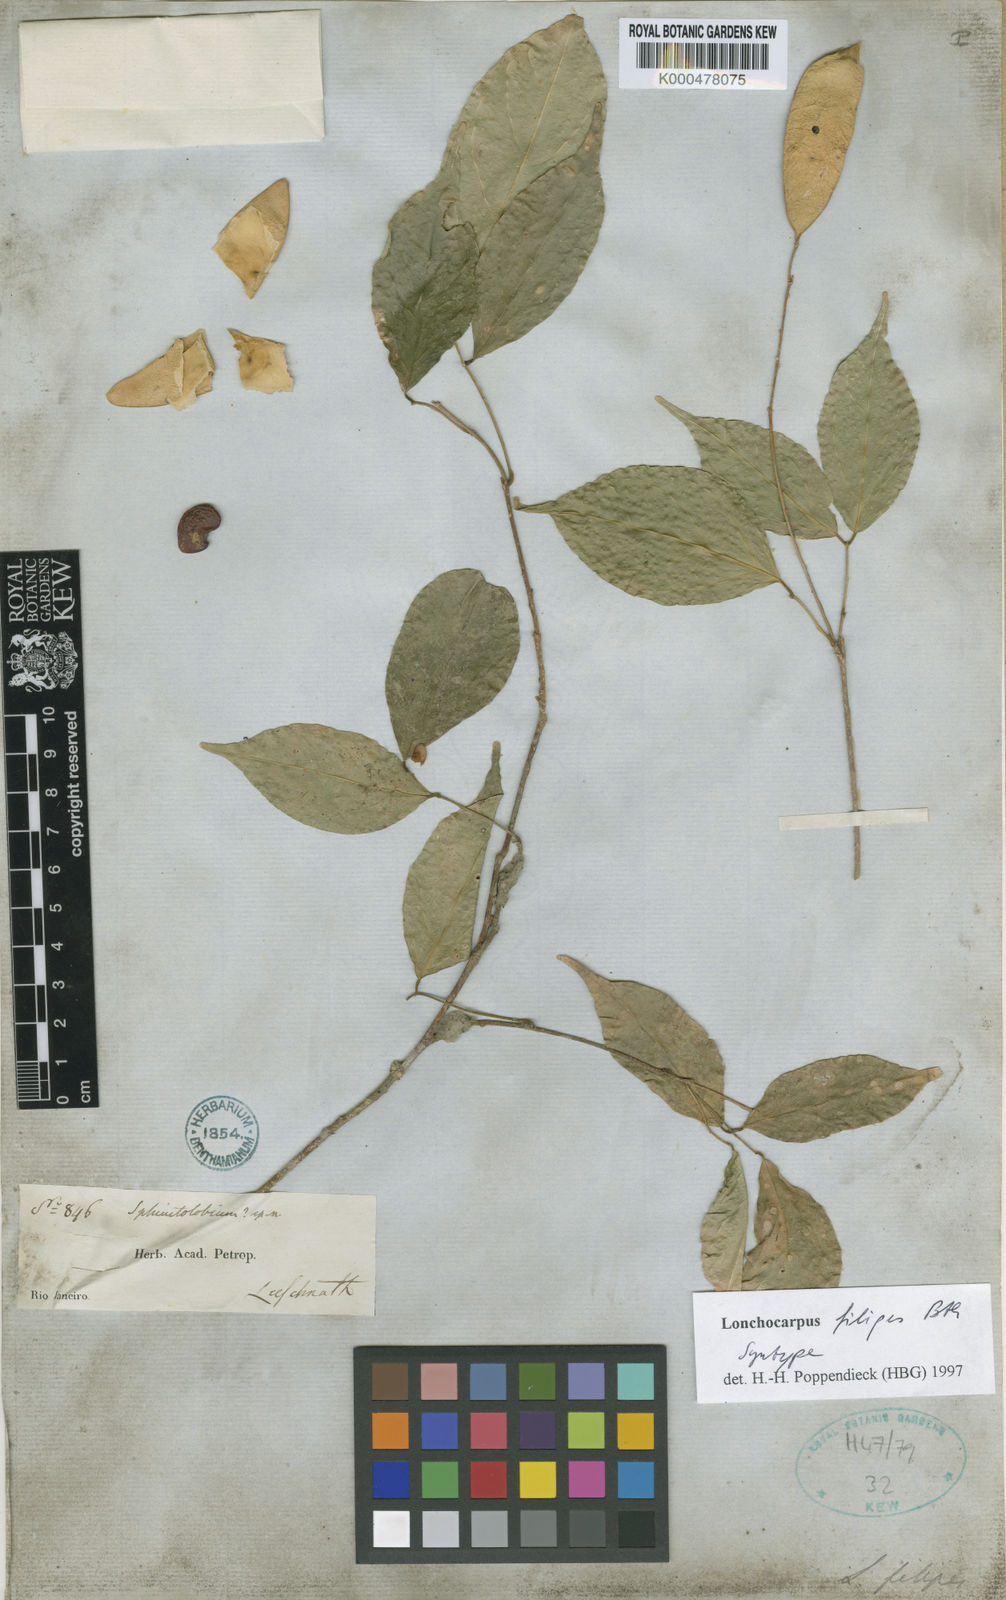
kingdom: Plantae
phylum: Tracheophyta
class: Magnoliopsida
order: Fabales
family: Fabaceae
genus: Muellera
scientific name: Muellera filipes
